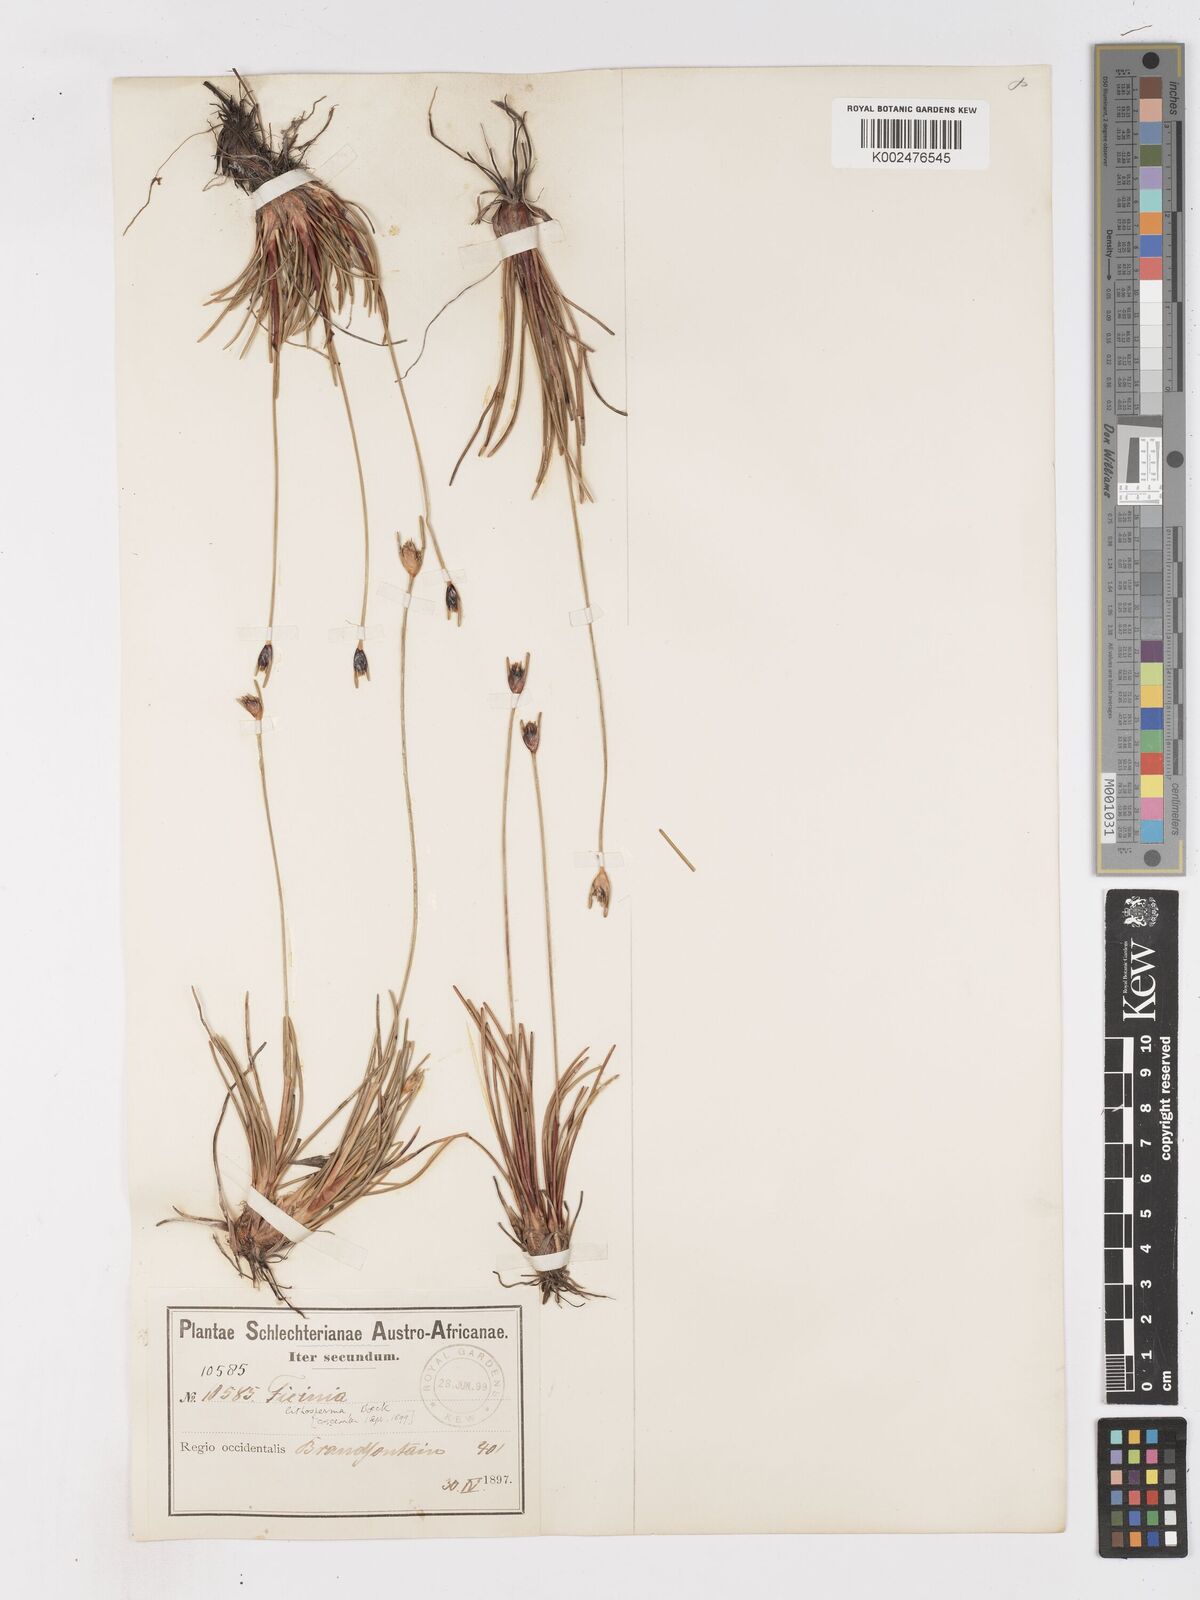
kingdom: Plantae
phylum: Tracheophyta
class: Liliopsida
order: Poales
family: Cyperaceae
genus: Ficinia
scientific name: Ficinia
